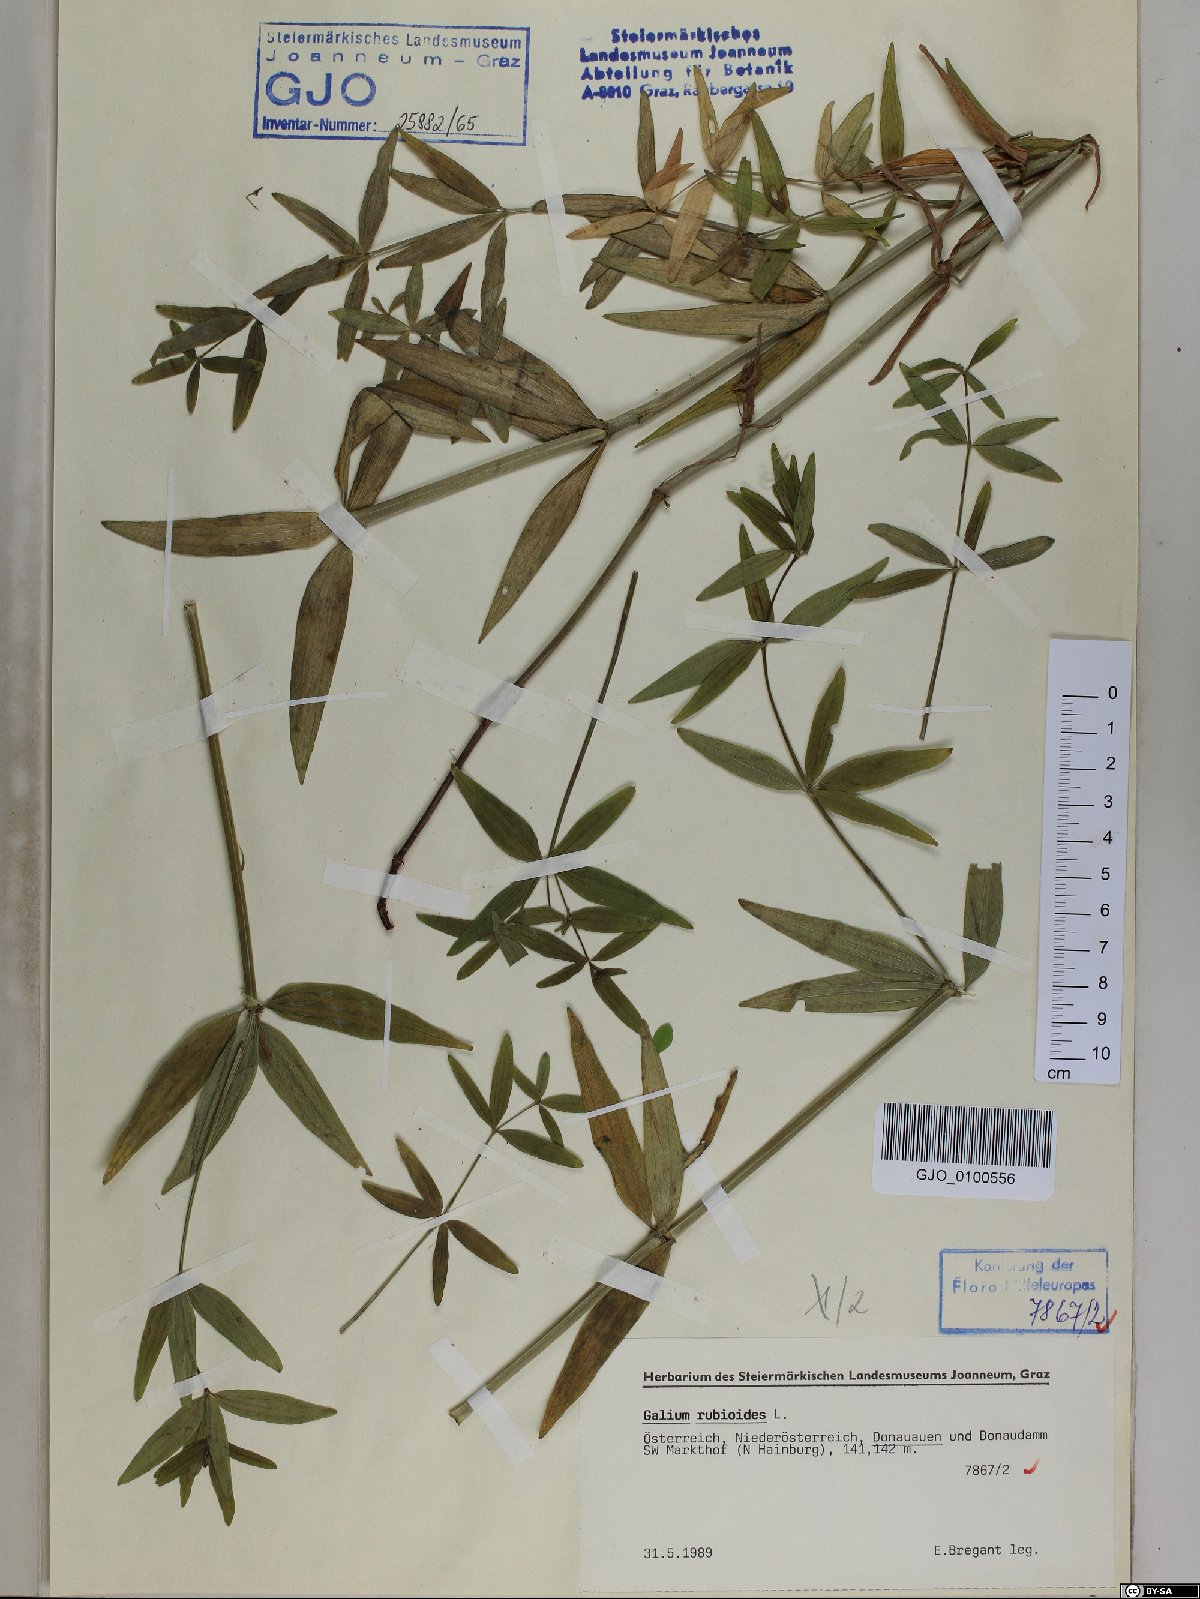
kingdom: Plantae
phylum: Tracheophyta
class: Magnoliopsida
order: Gentianales
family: Rubiaceae
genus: Galium
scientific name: Galium rubioides
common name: European bedstraw
